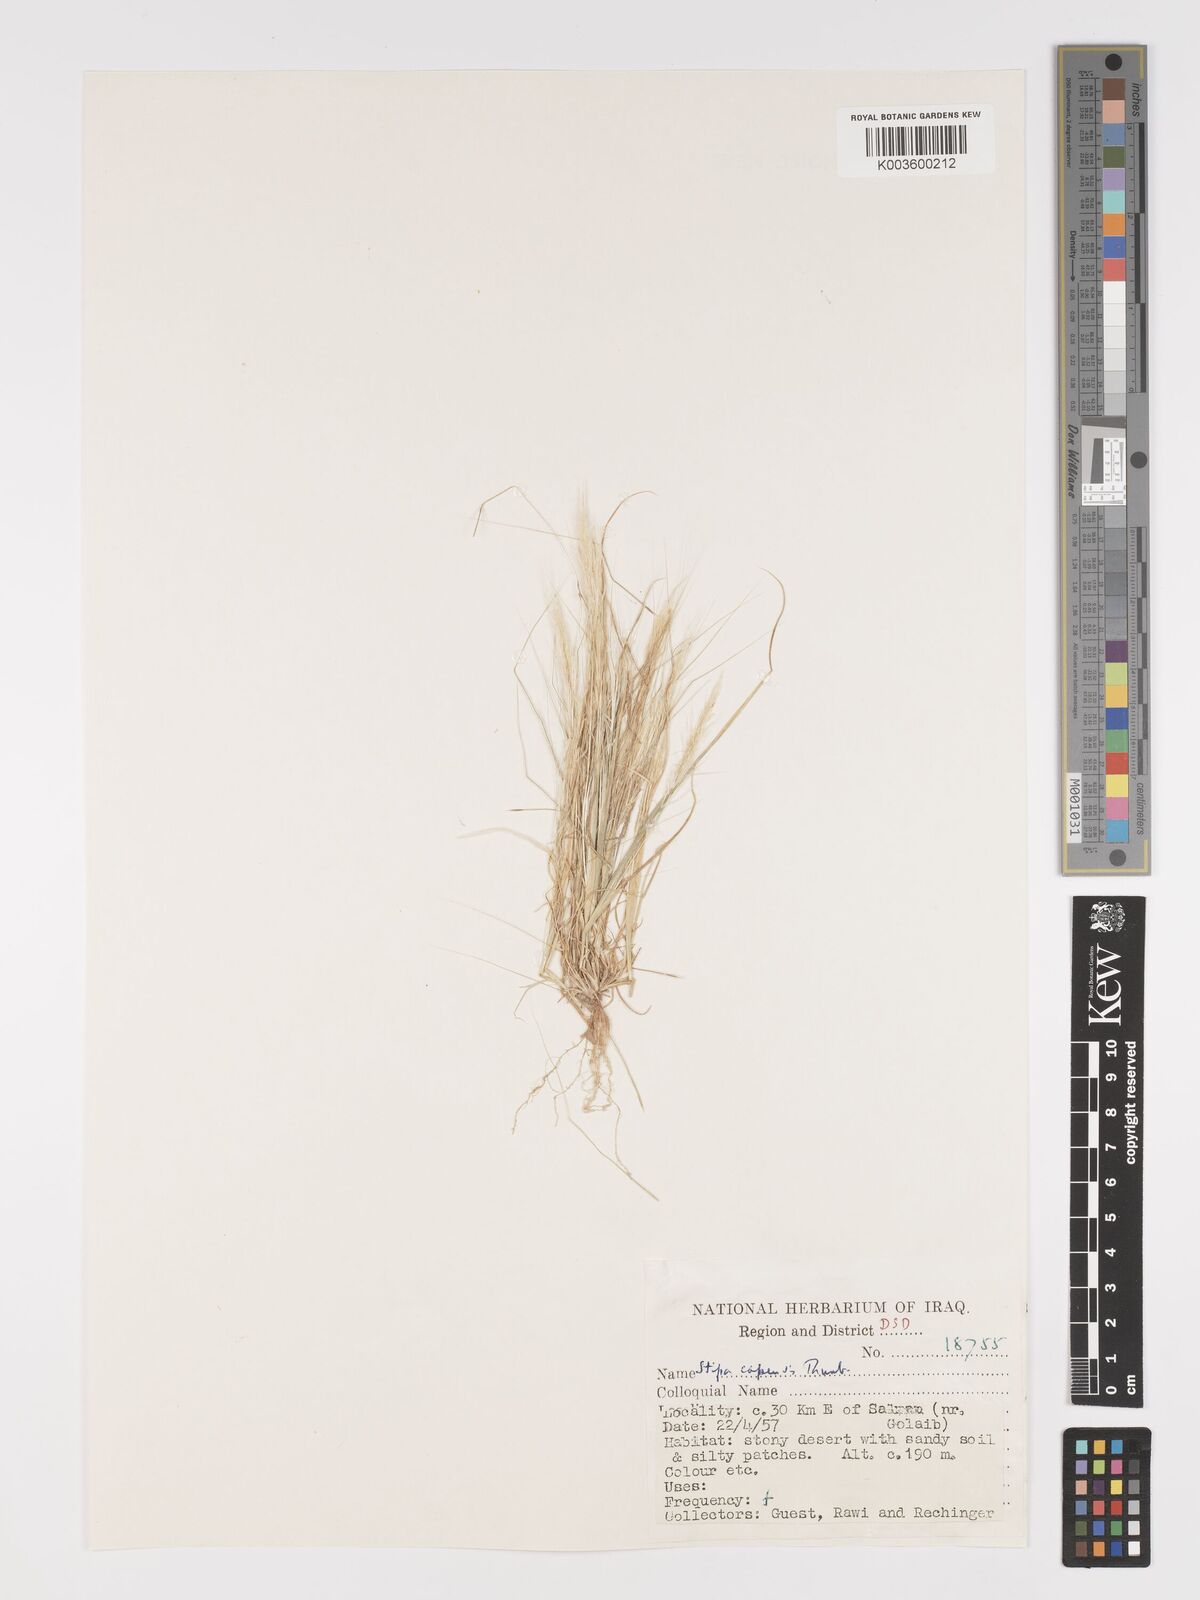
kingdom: Plantae
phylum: Tracheophyta
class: Liliopsida
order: Poales
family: Poaceae
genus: Stipellula
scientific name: Stipellula capensis
